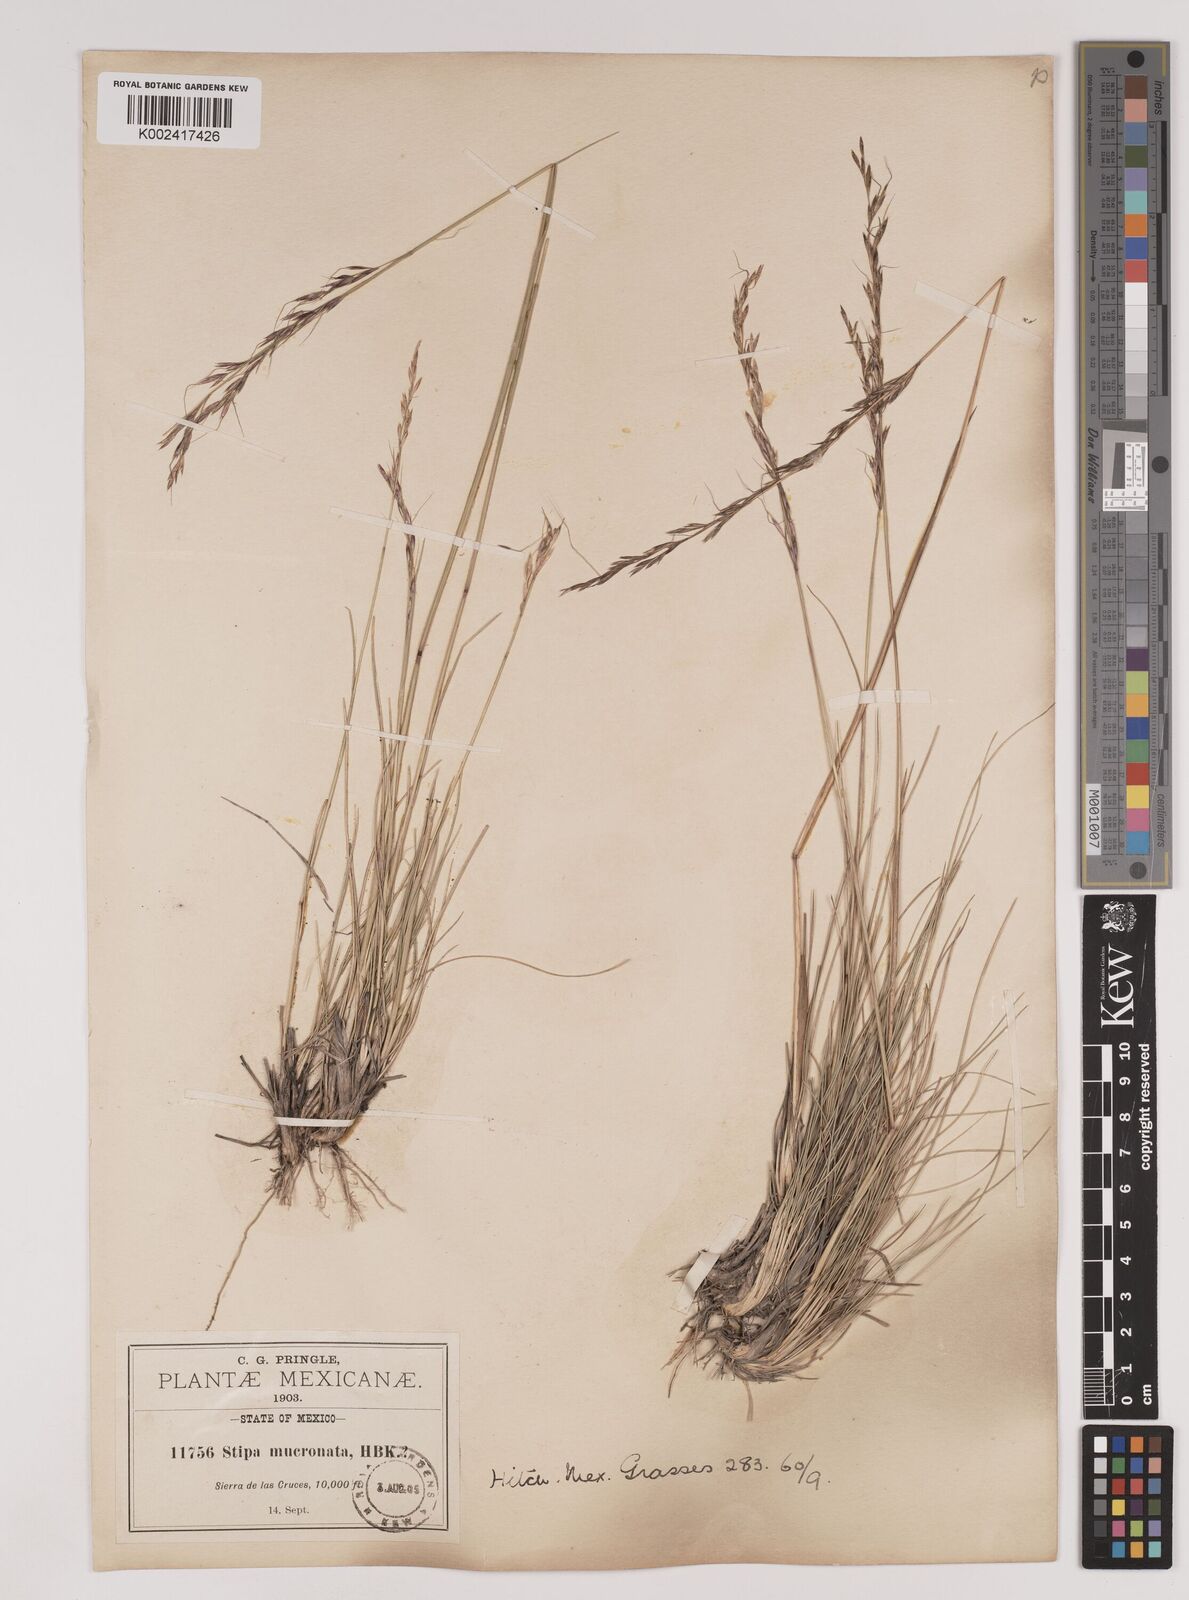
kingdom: Plantae
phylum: Tracheophyta
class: Liliopsida
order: Poales
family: Poaceae
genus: Nassella
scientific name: Nassella mucronata
